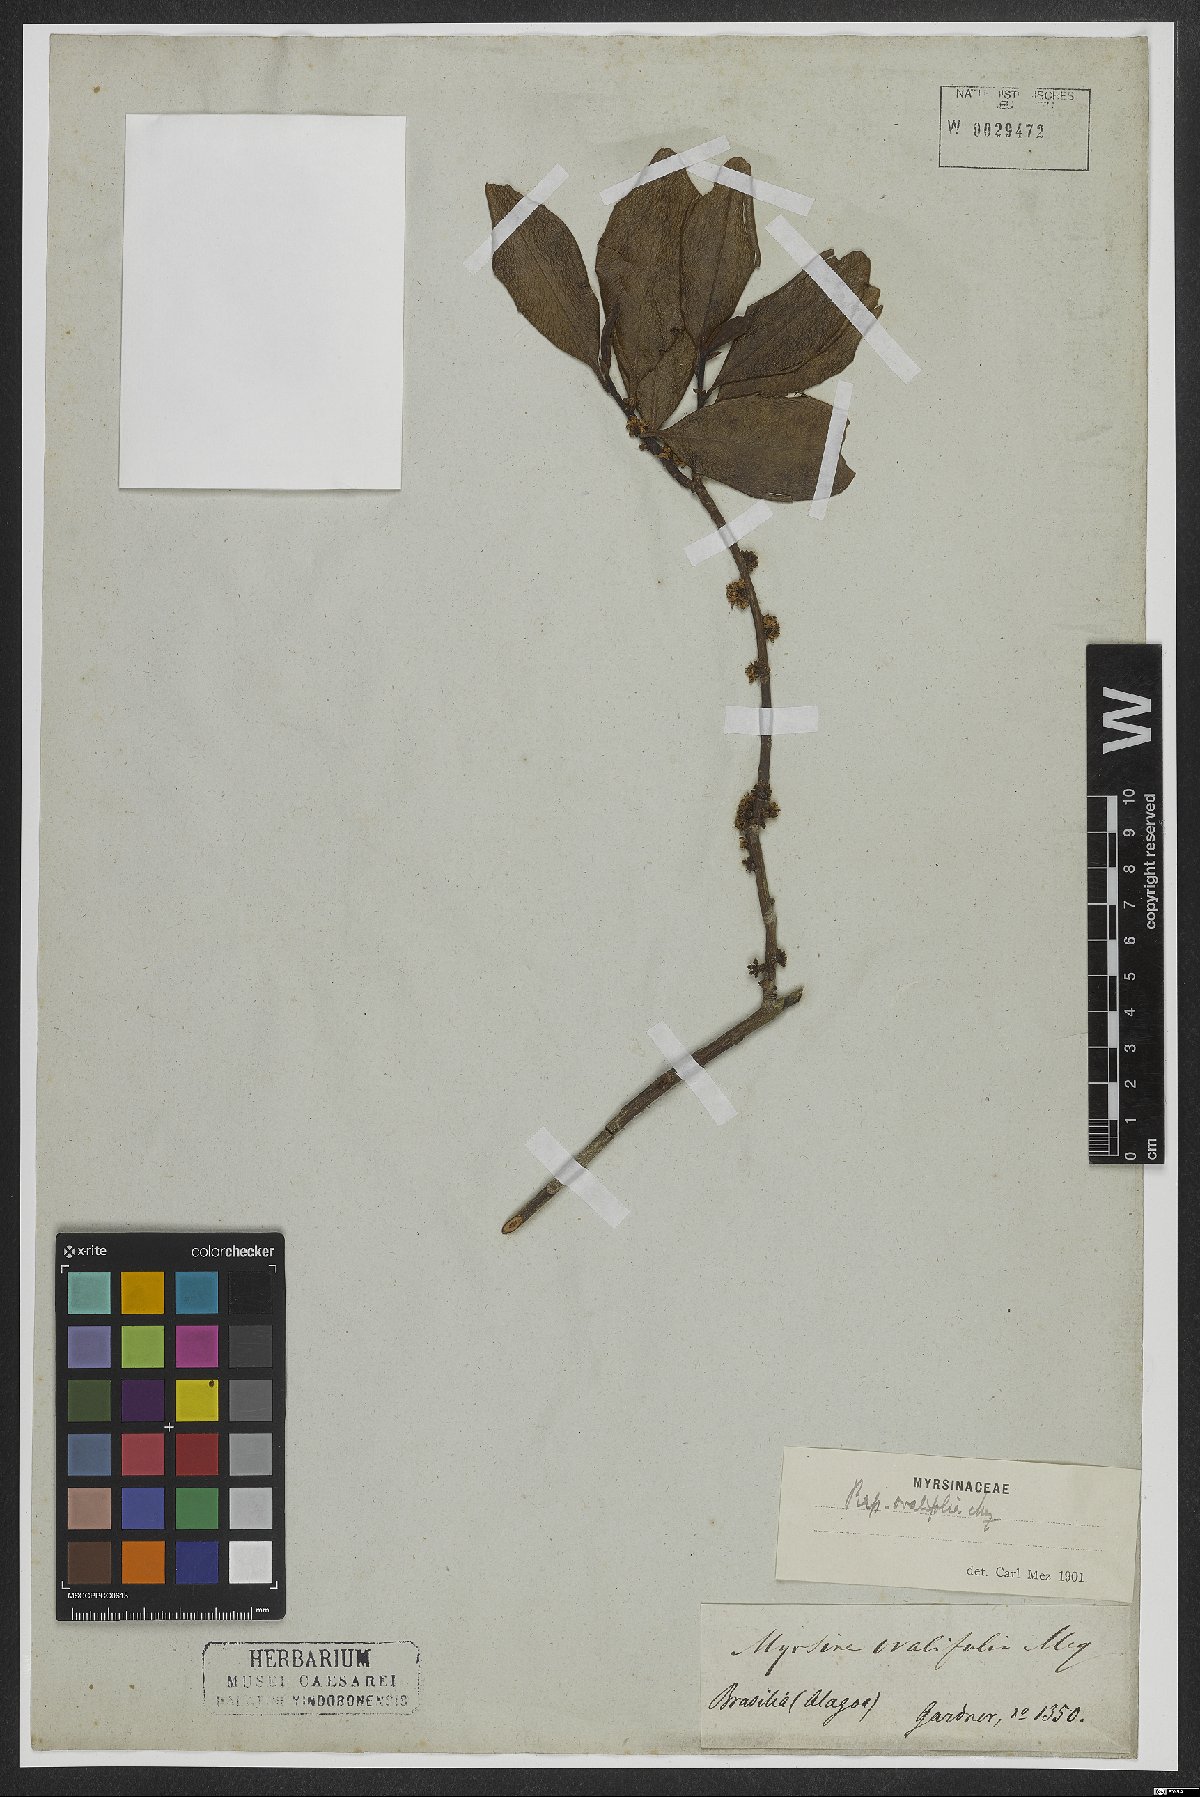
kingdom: Plantae
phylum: Tracheophyta
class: Magnoliopsida
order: Ericales
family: Primulaceae
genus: Myrsine
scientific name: Myrsine miquelii
